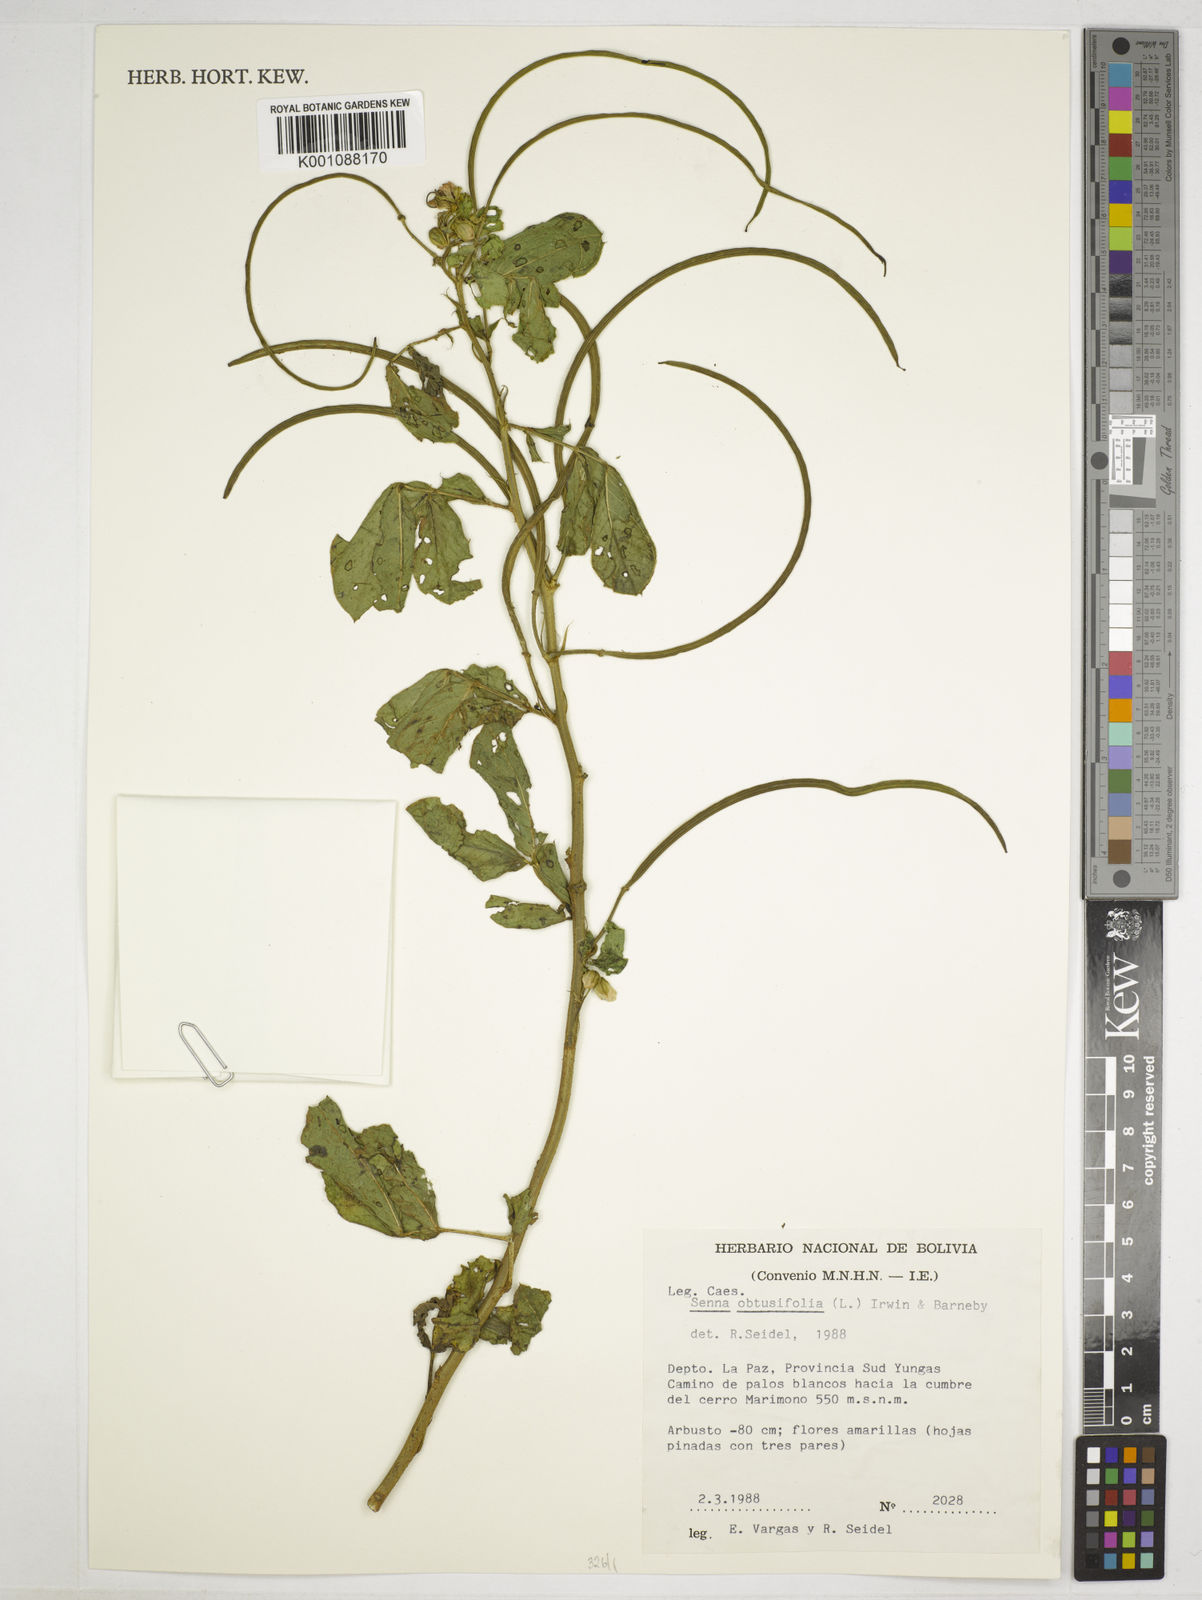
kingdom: Plantae
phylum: Tracheophyta
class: Magnoliopsida
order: Fabales
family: Fabaceae
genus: Senna
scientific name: Senna obtusifolia
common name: Java-bean
